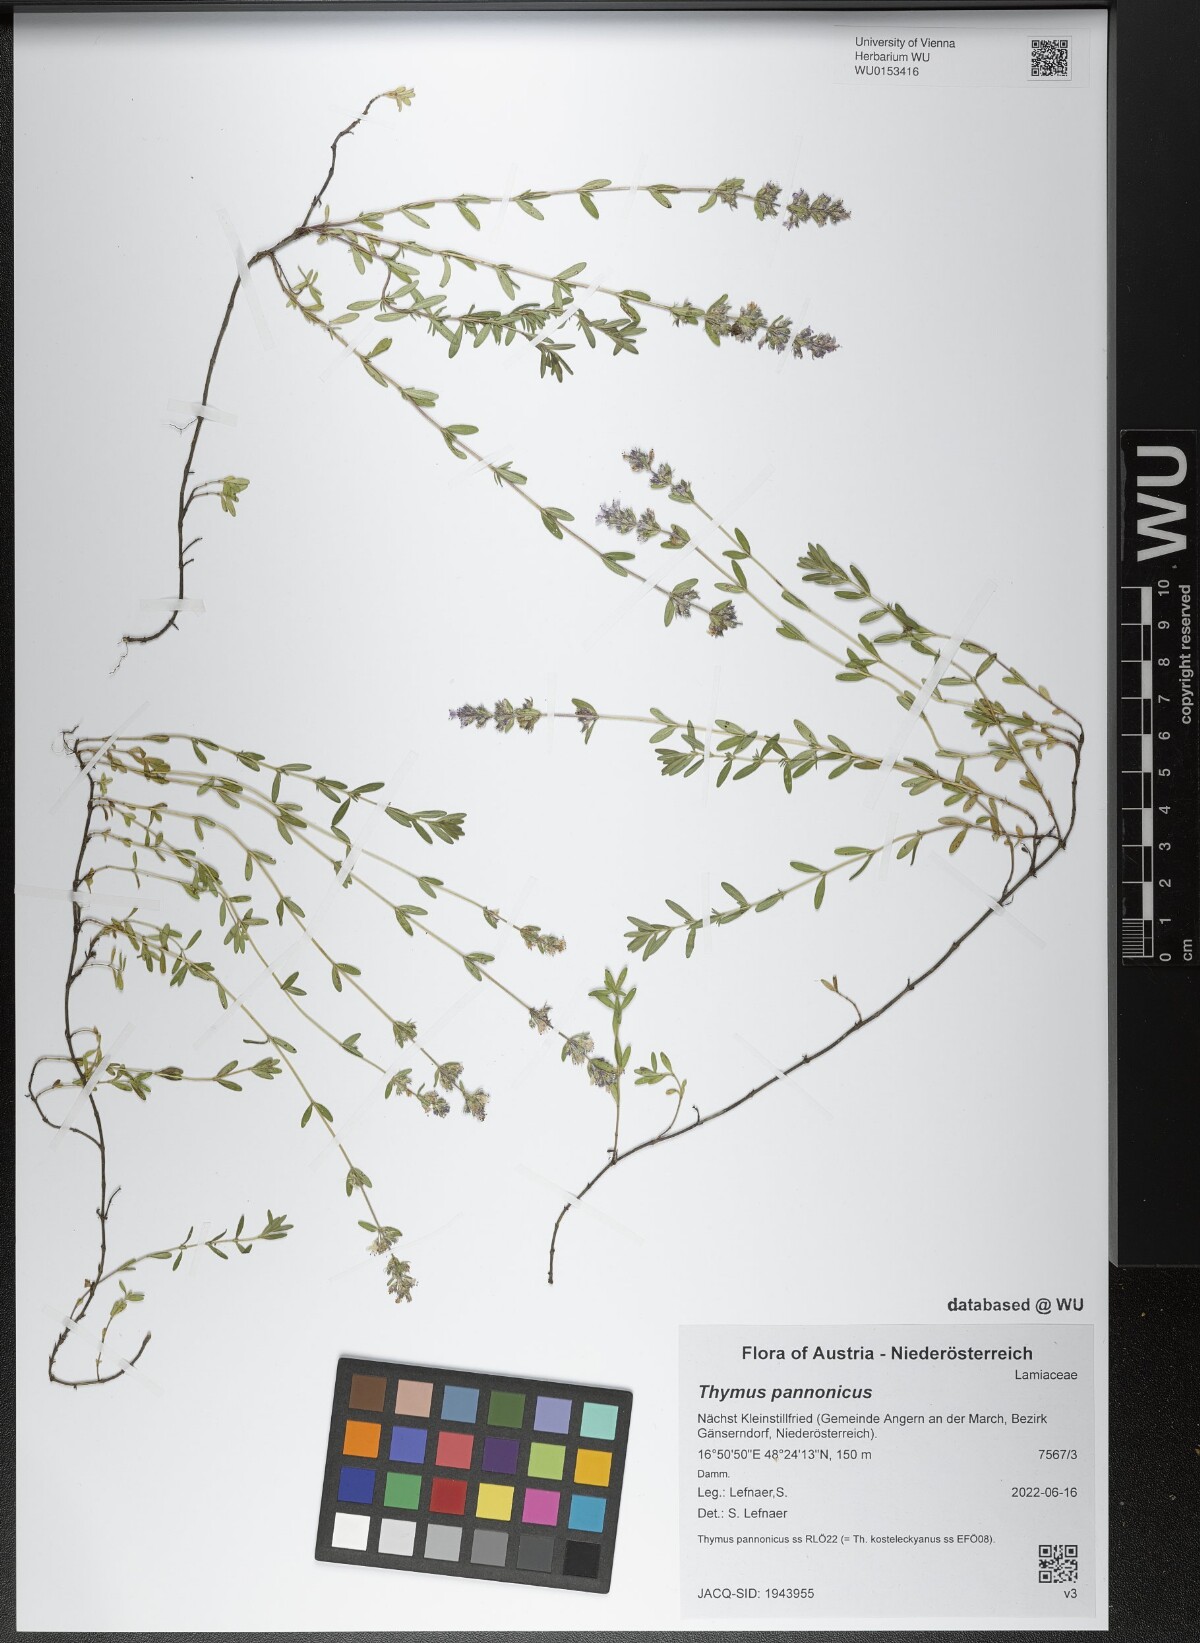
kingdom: Plantae
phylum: Tracheophyta
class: Magnoliopsida
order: Lamiales
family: Lamiaceae
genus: Thymus
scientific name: Thymus pannonicus
